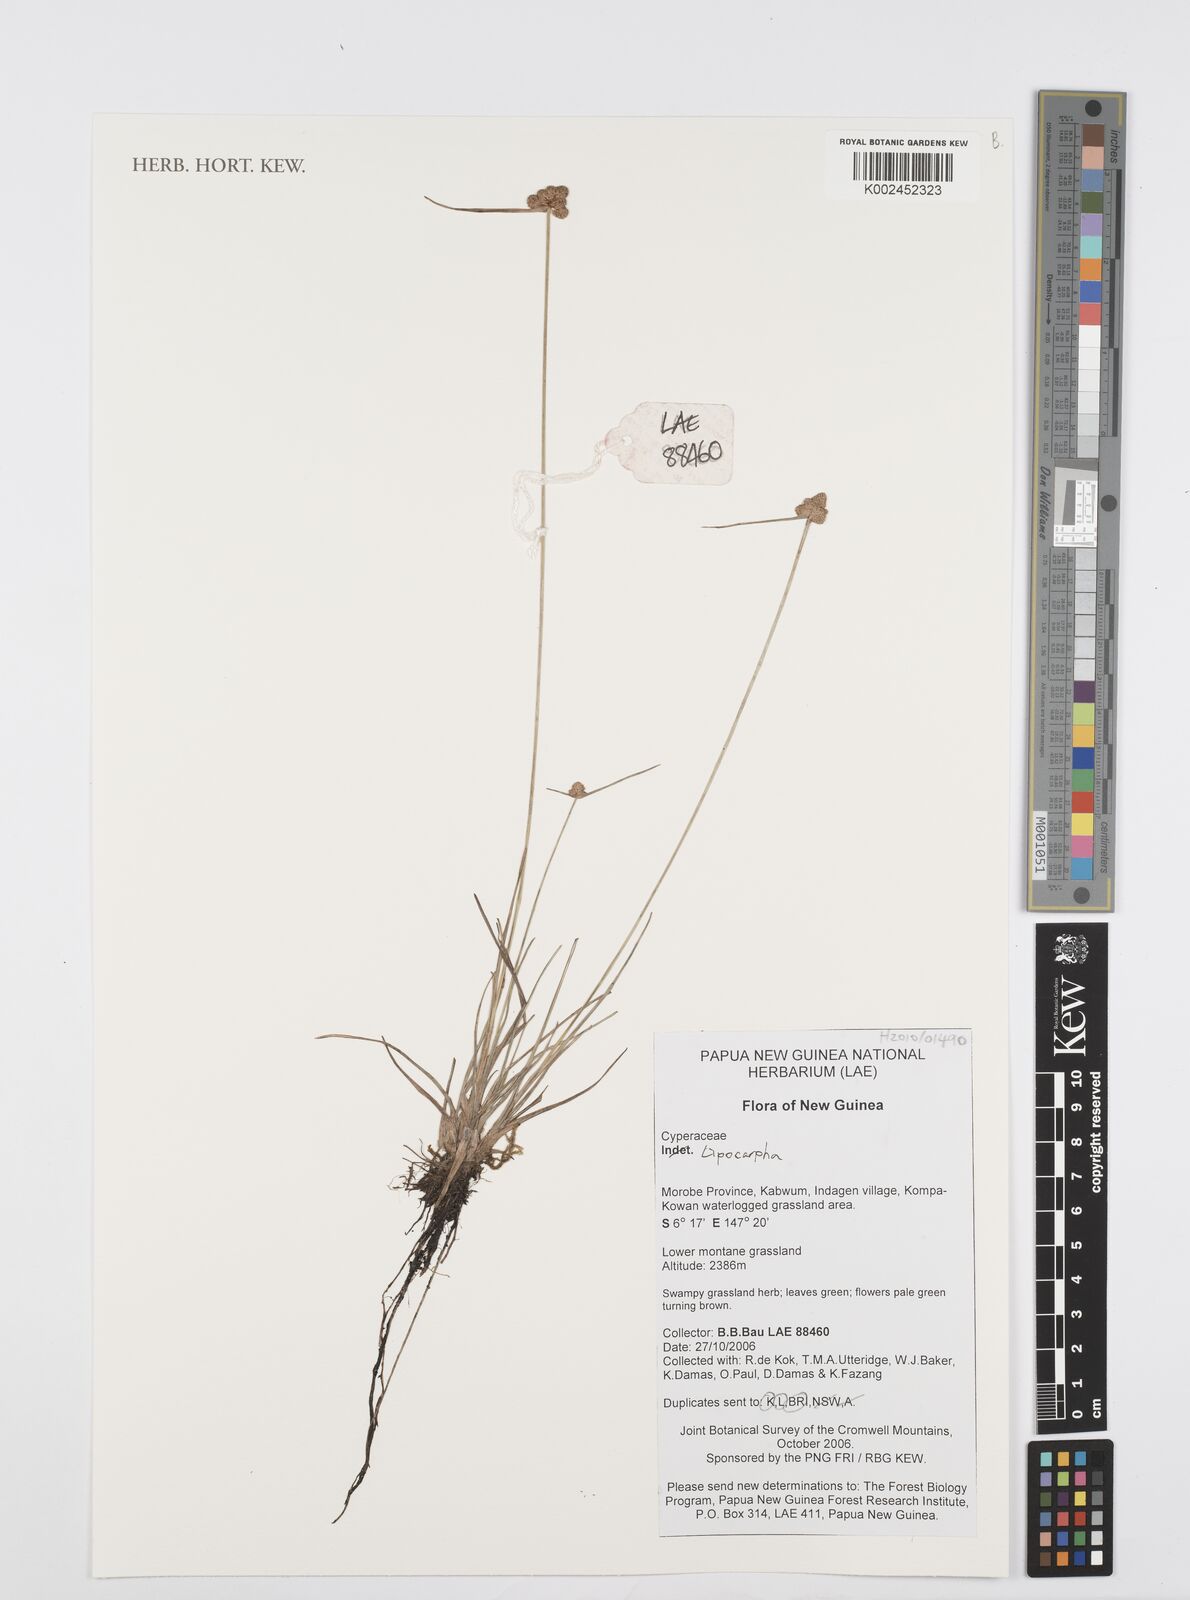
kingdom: Plantae
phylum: Tracheophyta
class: Liliopsida
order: Poales
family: Cyperaceae
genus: Cyperus
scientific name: Cyperus
